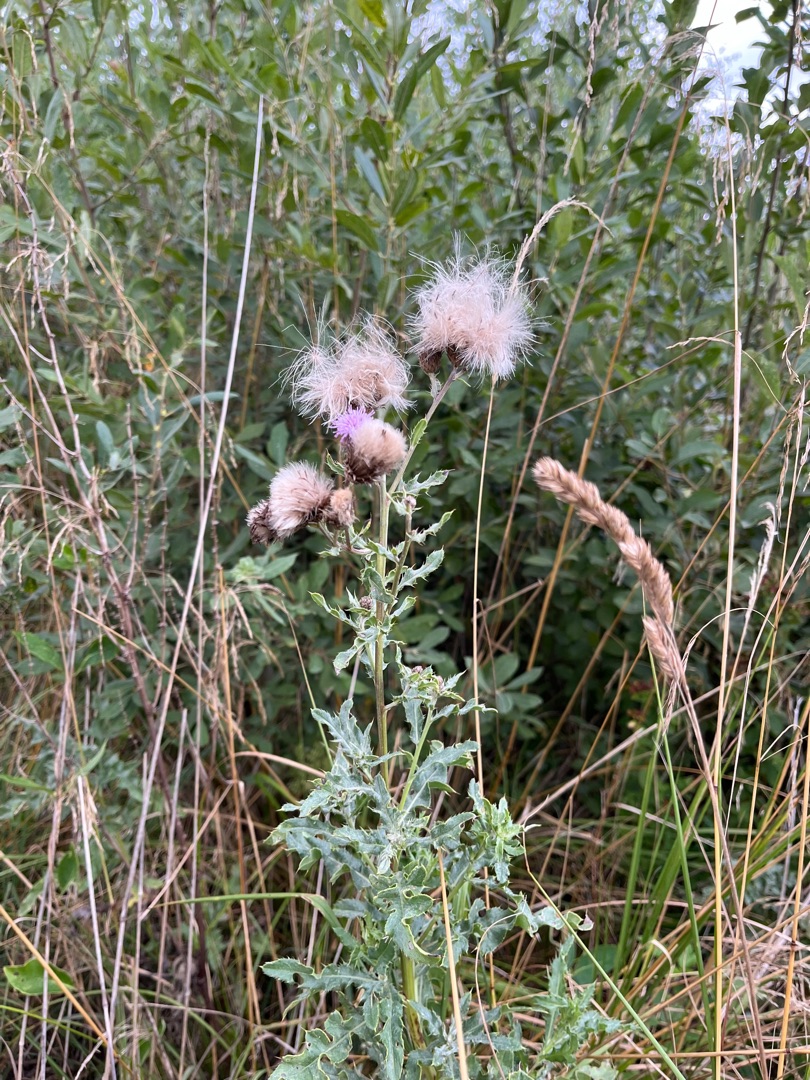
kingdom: Plantae
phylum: Tracheophyta
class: Magnoliopsida
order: Asterales
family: Asteraceae
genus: Cirsium
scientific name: Cirsium arvense
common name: Ager-tidsel
